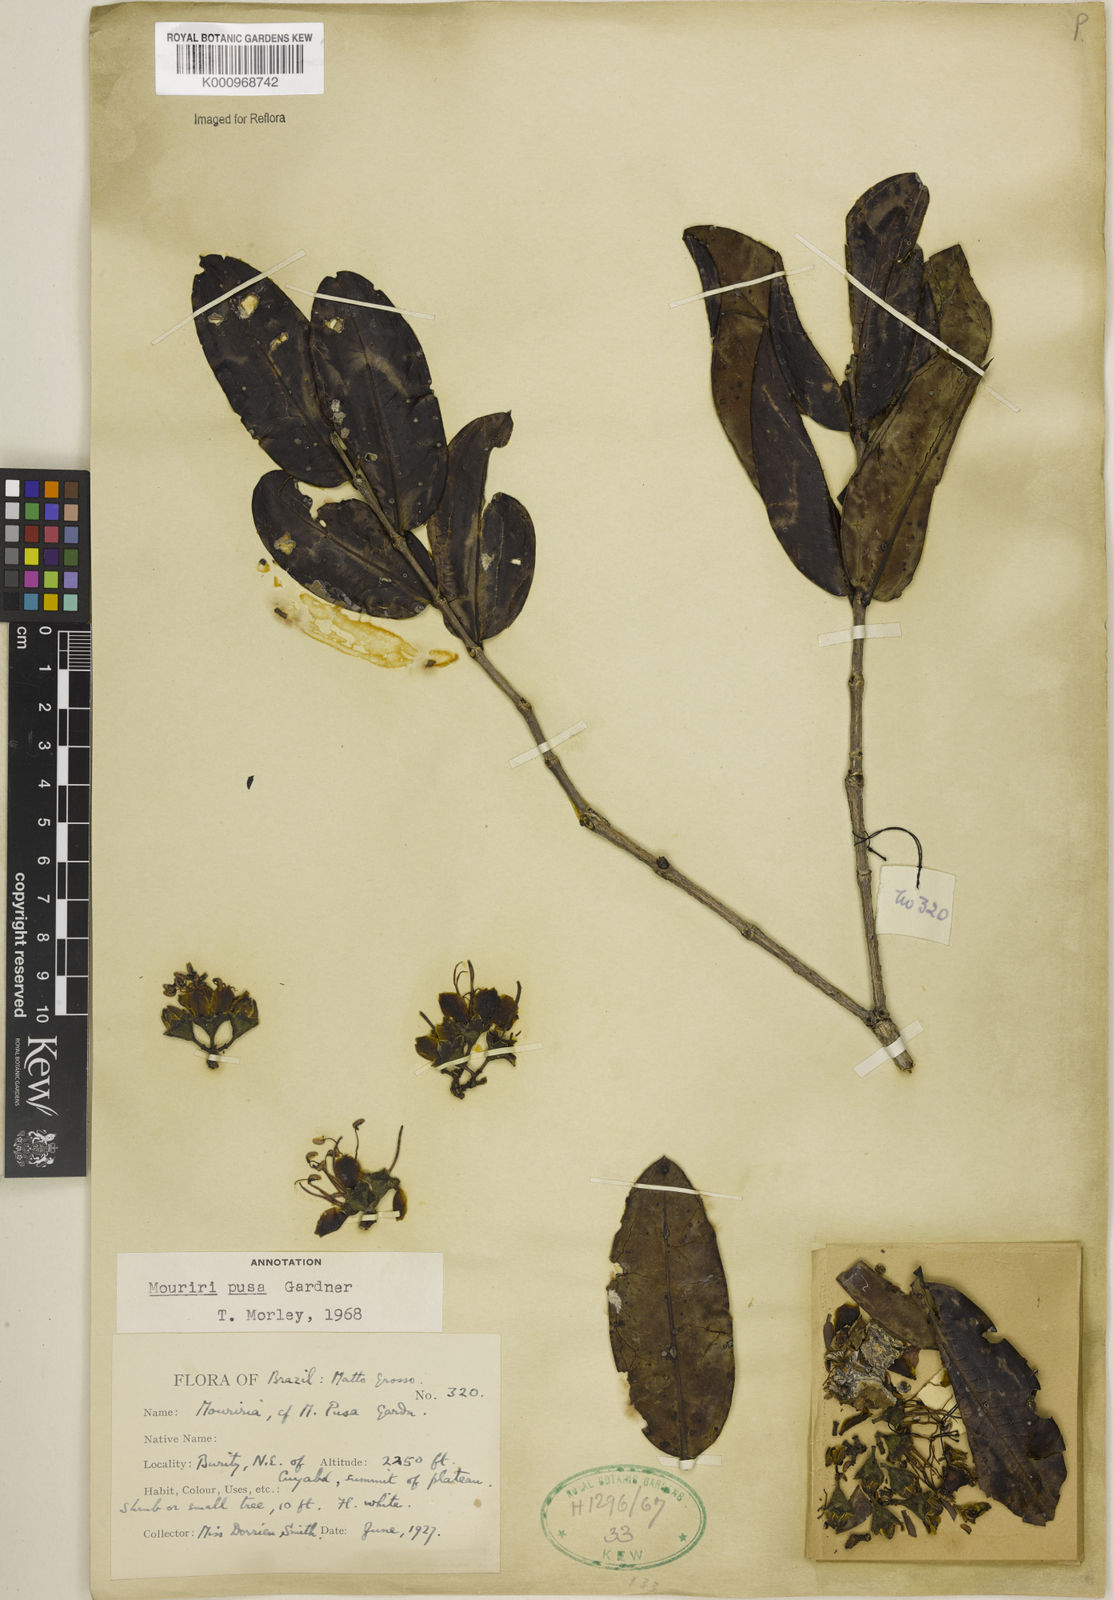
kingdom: Plantae
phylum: Tracheophyta
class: Magnoliopsida
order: Myrtales
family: Melastomataceae
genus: Mouriri
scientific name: Mouriri pusa
